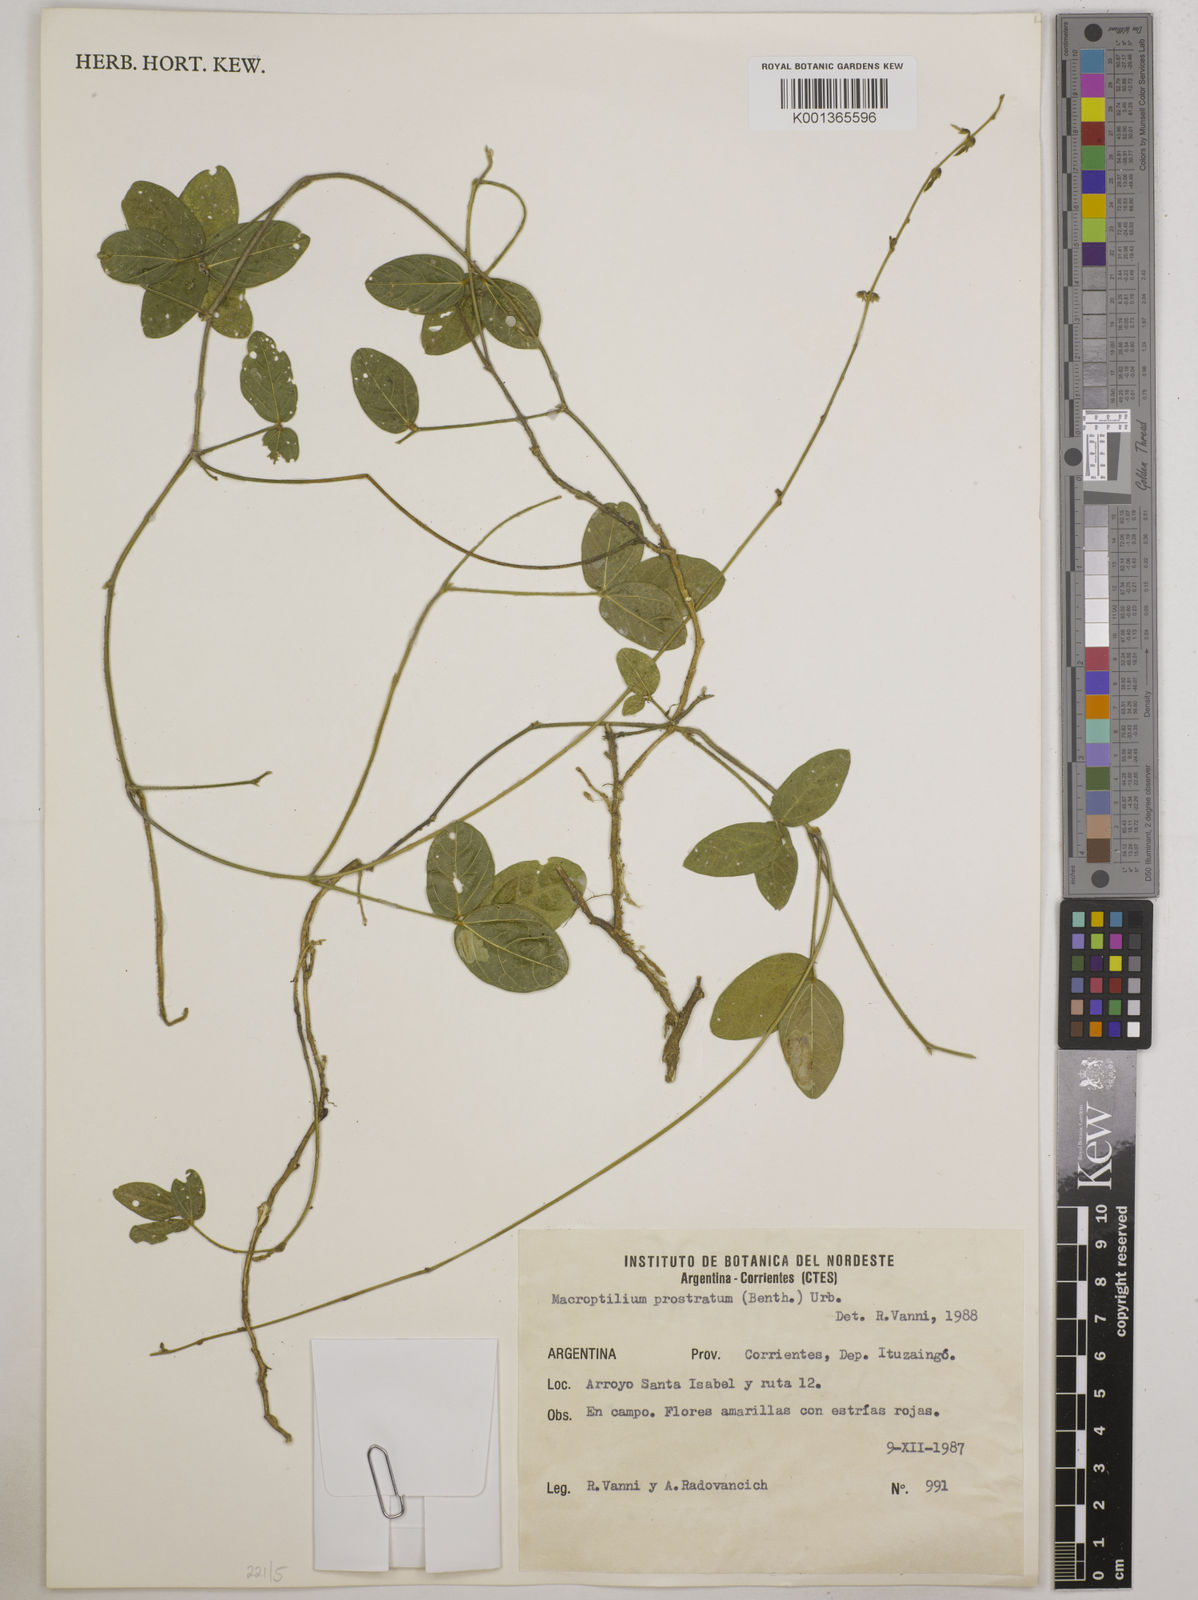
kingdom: Plantae
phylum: Tracheophyta
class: Magnoliopsida
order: Fabales
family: Fabaceae
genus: Macroptilium
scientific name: Macroptilium prostratum
